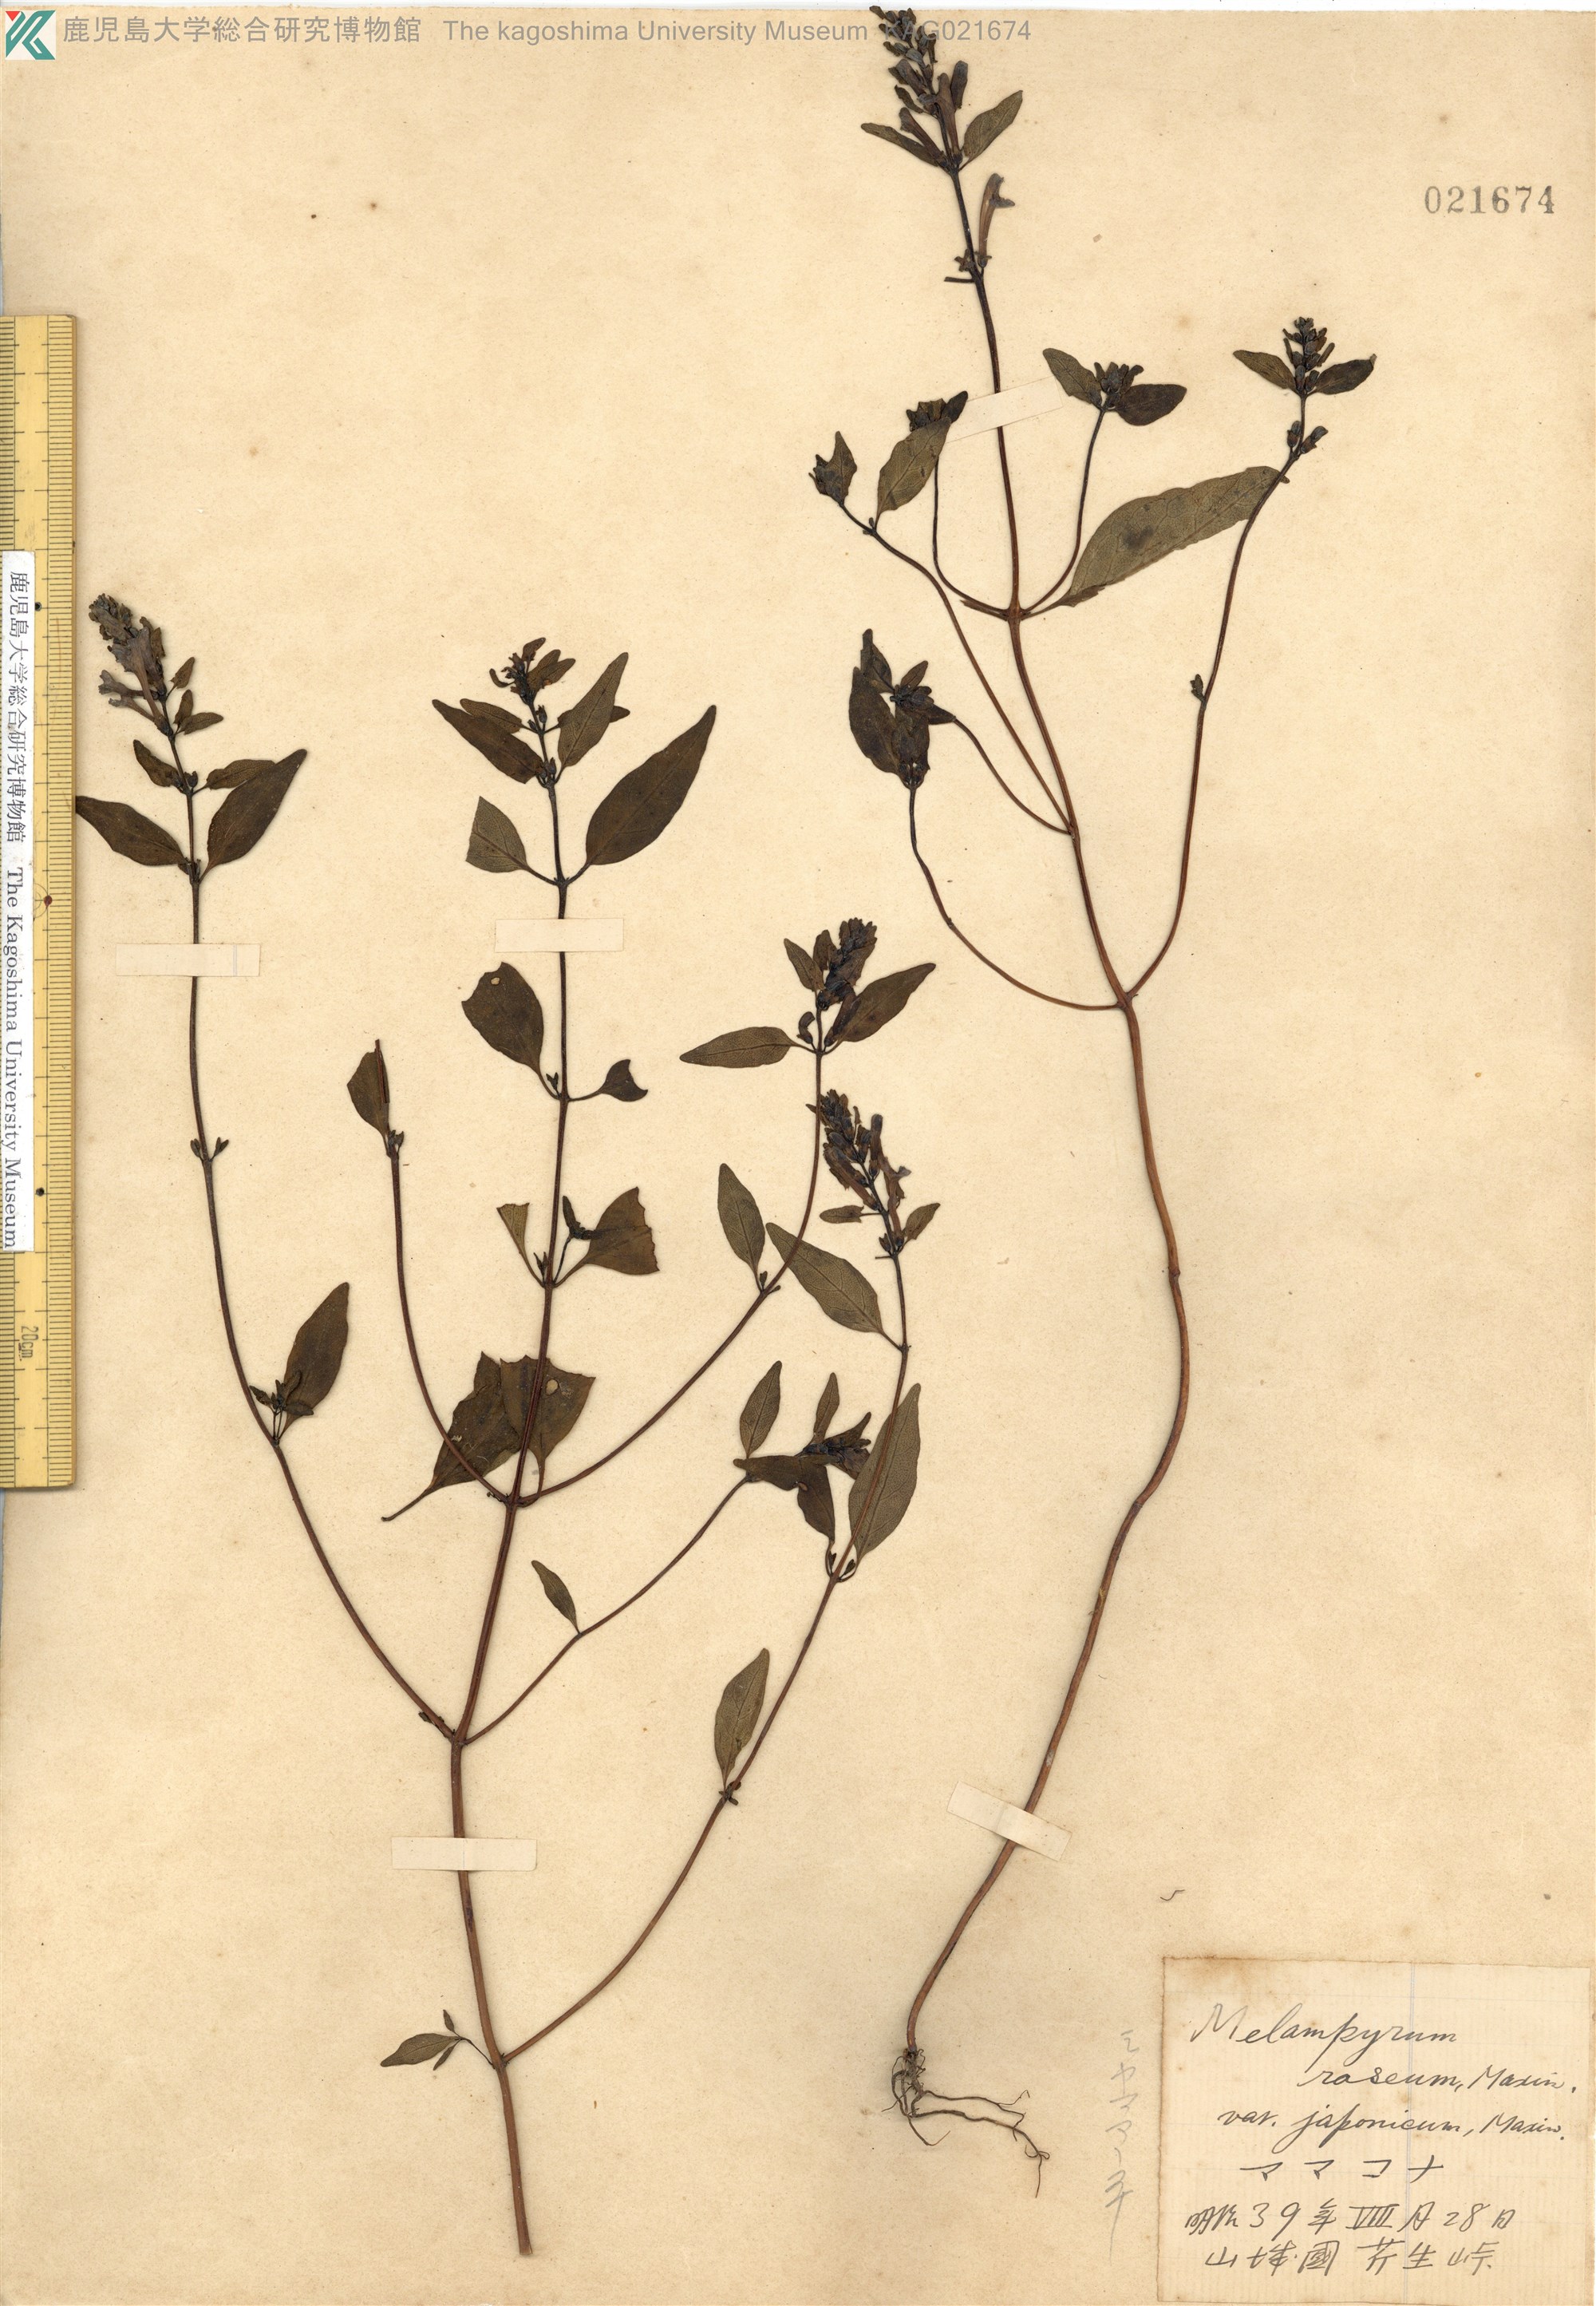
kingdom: Plantae
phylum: Tracheophyta
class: Magnoliopsida
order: Lamiales
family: Orobanchaceae
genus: Melampyrum
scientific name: Melampyrum laxum
